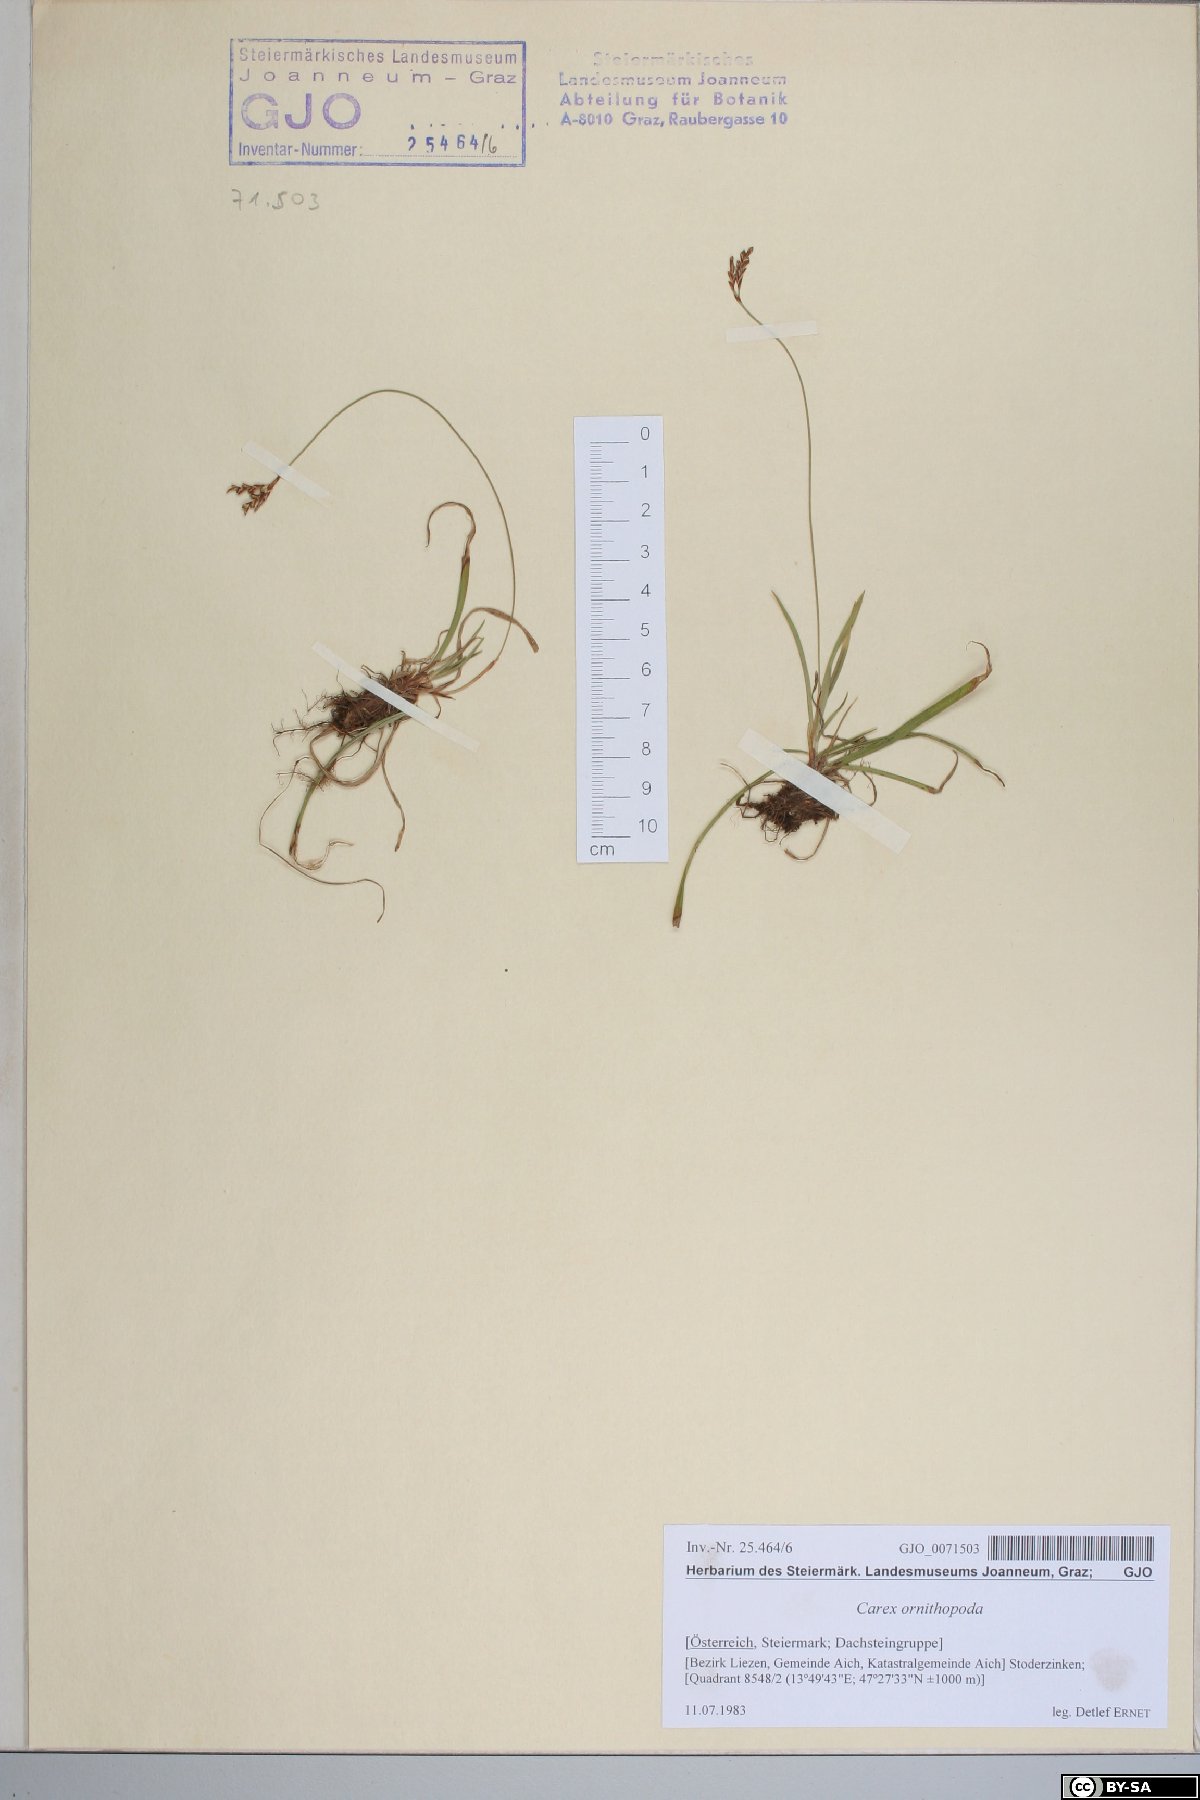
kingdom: Plantae
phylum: Tracheophyta
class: Liliopsida
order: Poales
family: Cyperaceae
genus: Carex
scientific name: Carex ornithopoda
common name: Bird's-foot sedge
